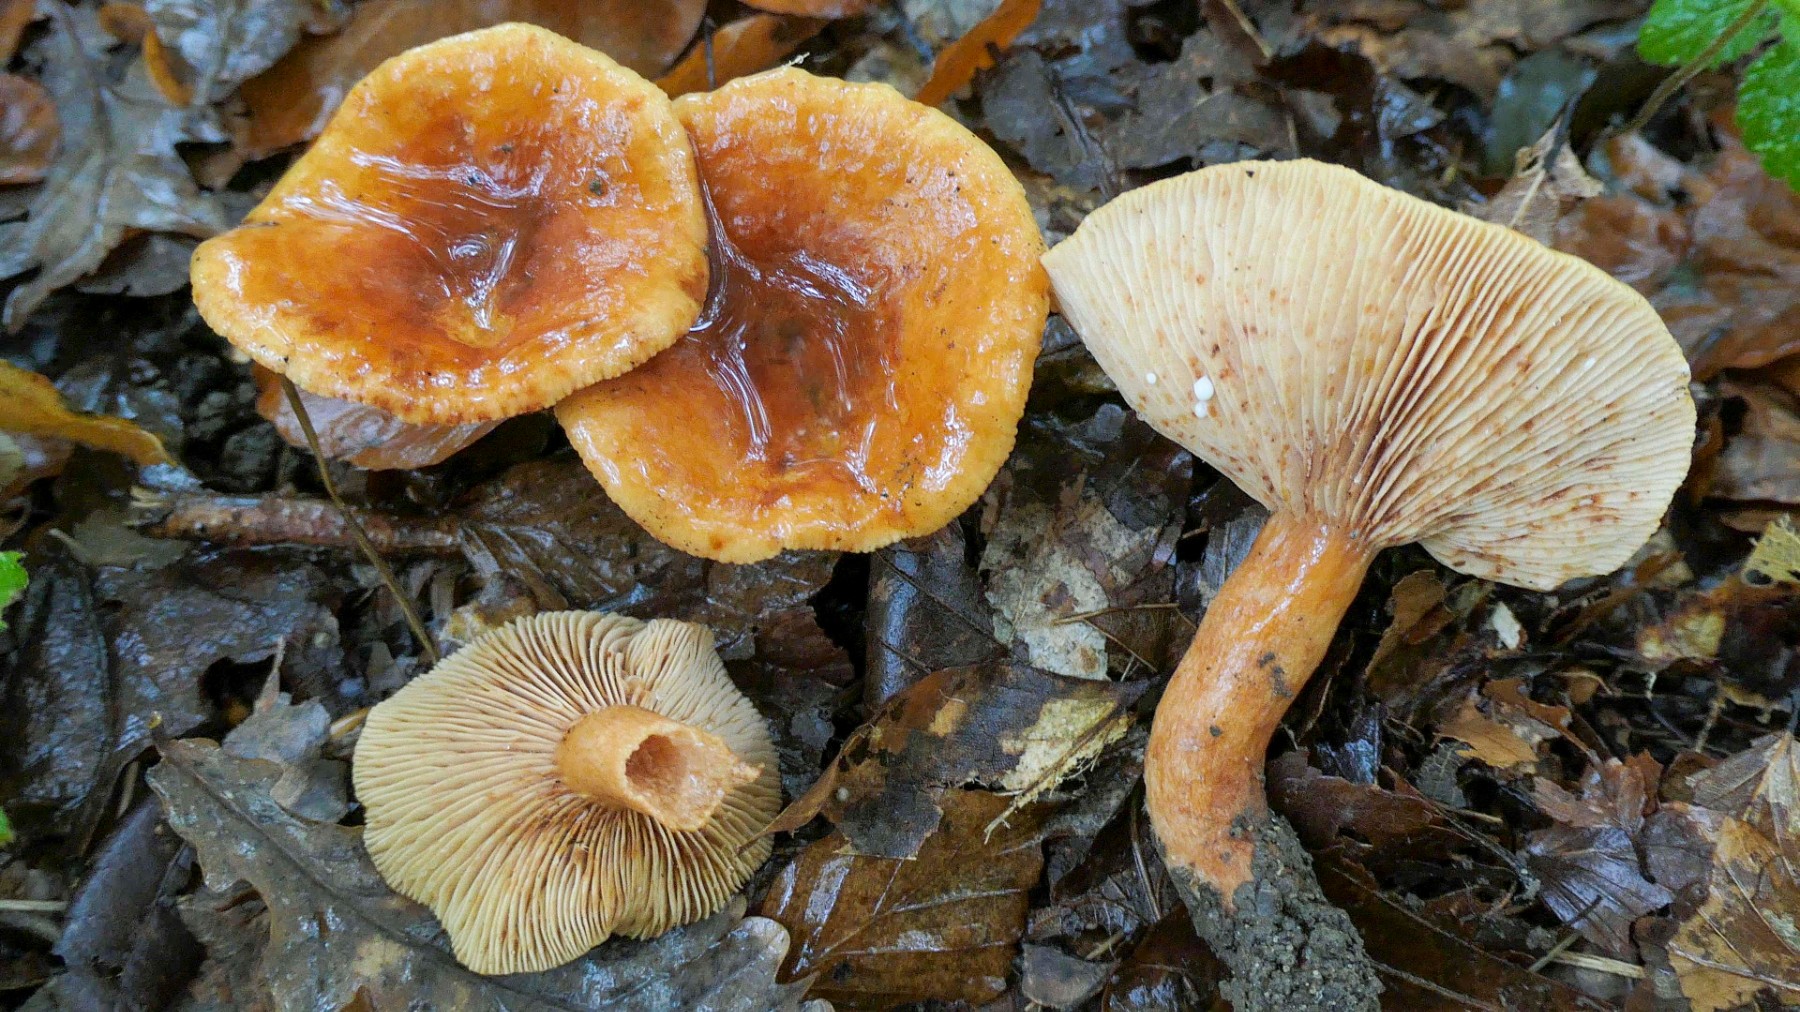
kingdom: Fungi
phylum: Basidiomycota
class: Agaricomycetes
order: Russulales
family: Russulaceae
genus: Lactarius
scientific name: Lactarius fulvissimus
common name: ræve-mælkehat
